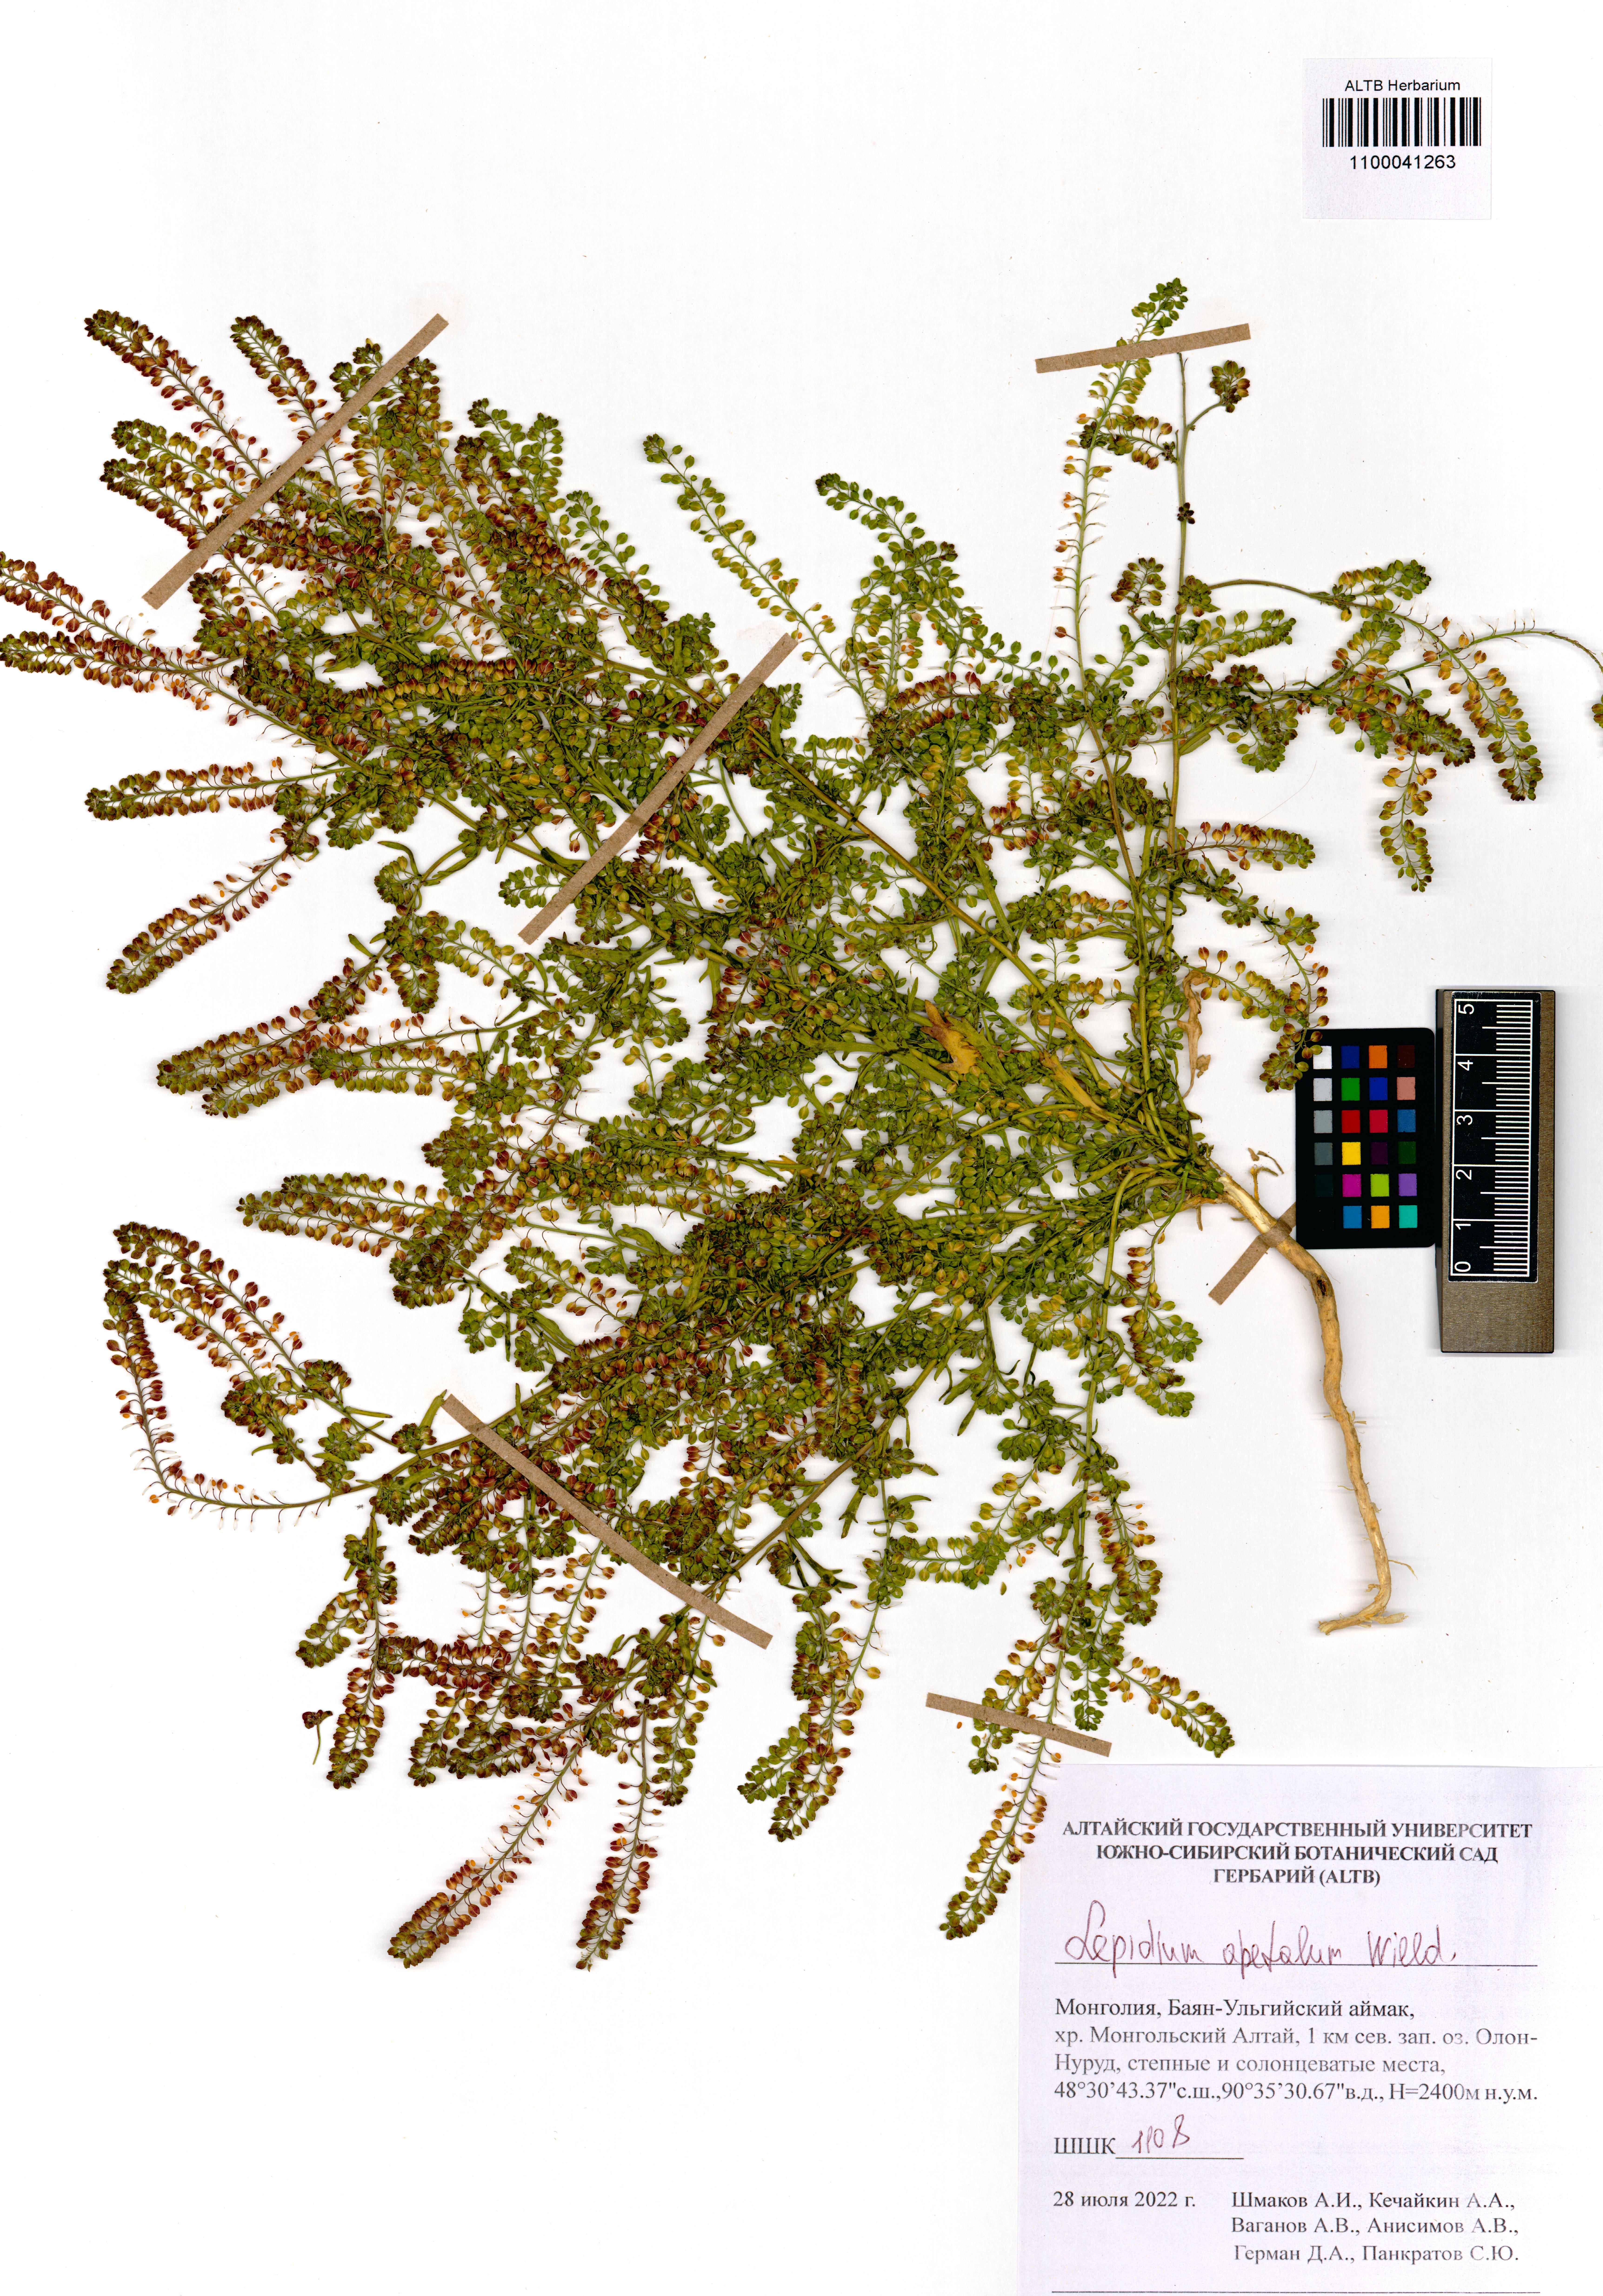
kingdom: Plantae
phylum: Tracheophyta
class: Magnoliopsida
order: Brassicales
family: Brassicaceae
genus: Lepidium
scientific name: Lepidium apetalum
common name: Pepperweed
